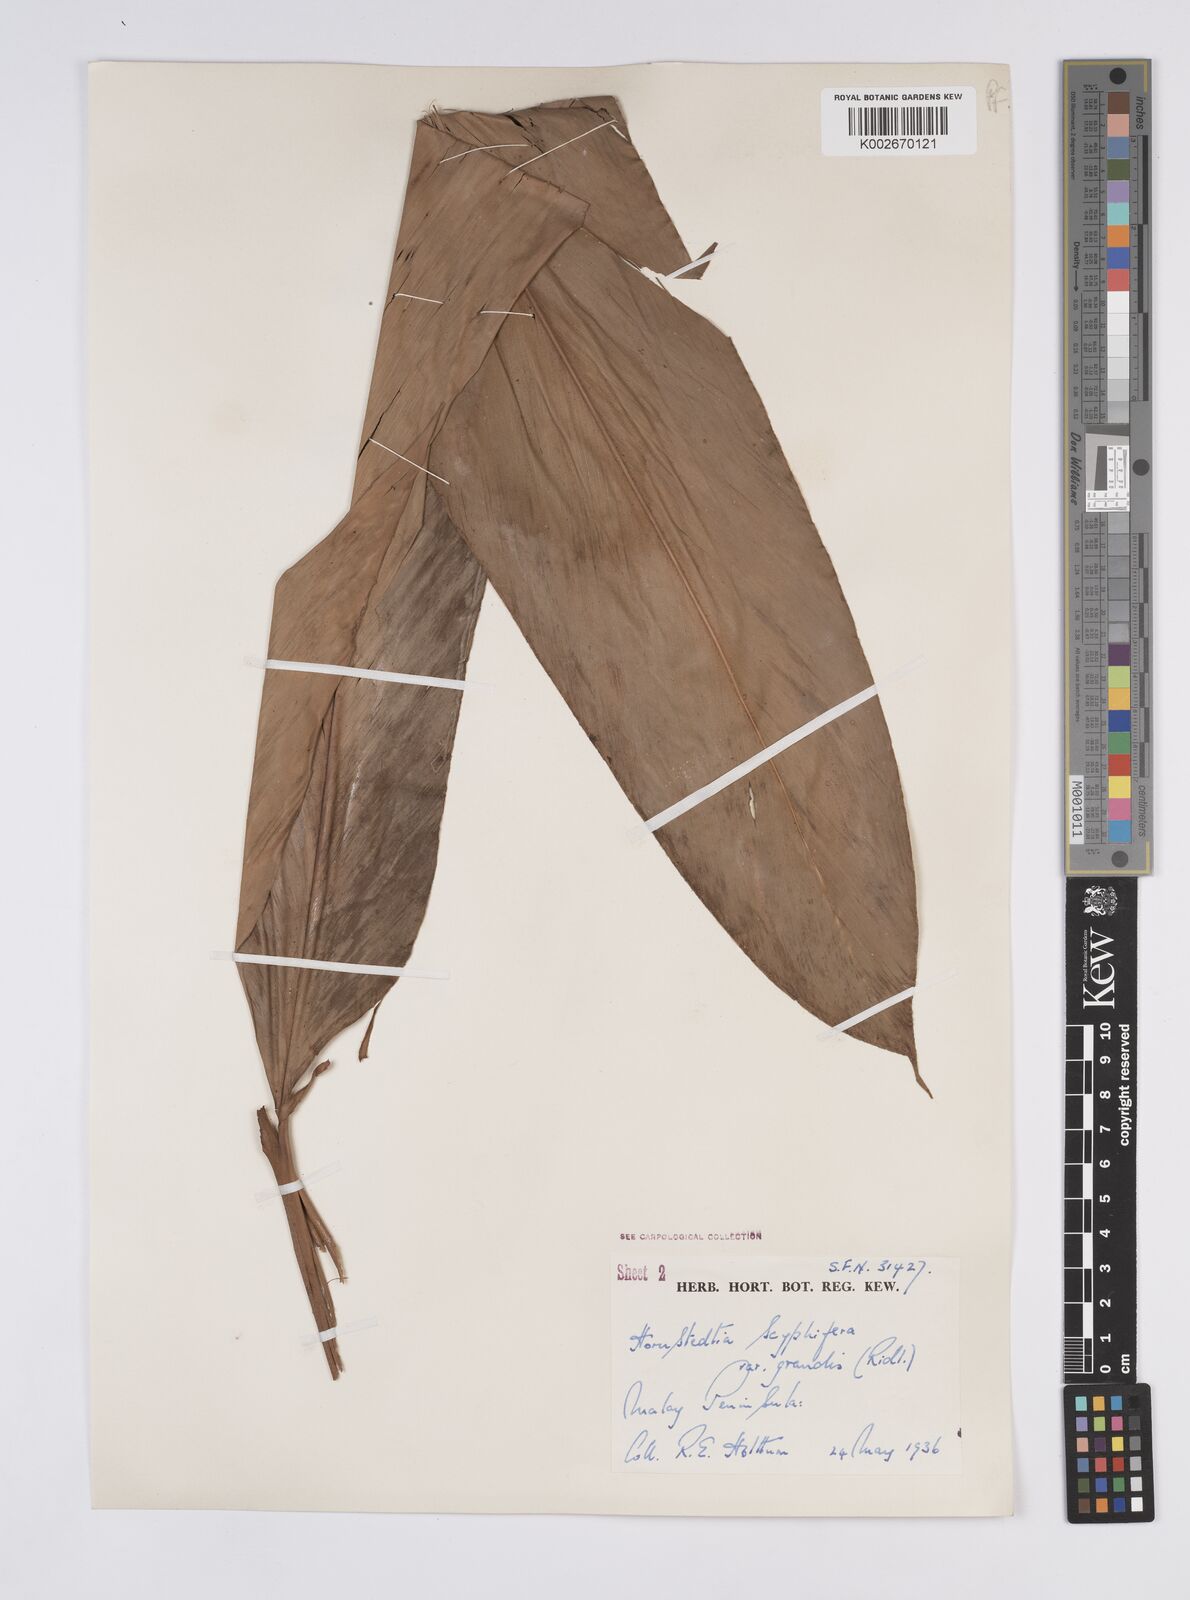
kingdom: Plantae
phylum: Tracheophyta
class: Liliopsida
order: Zingiberales
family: Zingiberaceae
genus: Hornstedtia
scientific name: Hornstedtia scyphifera
